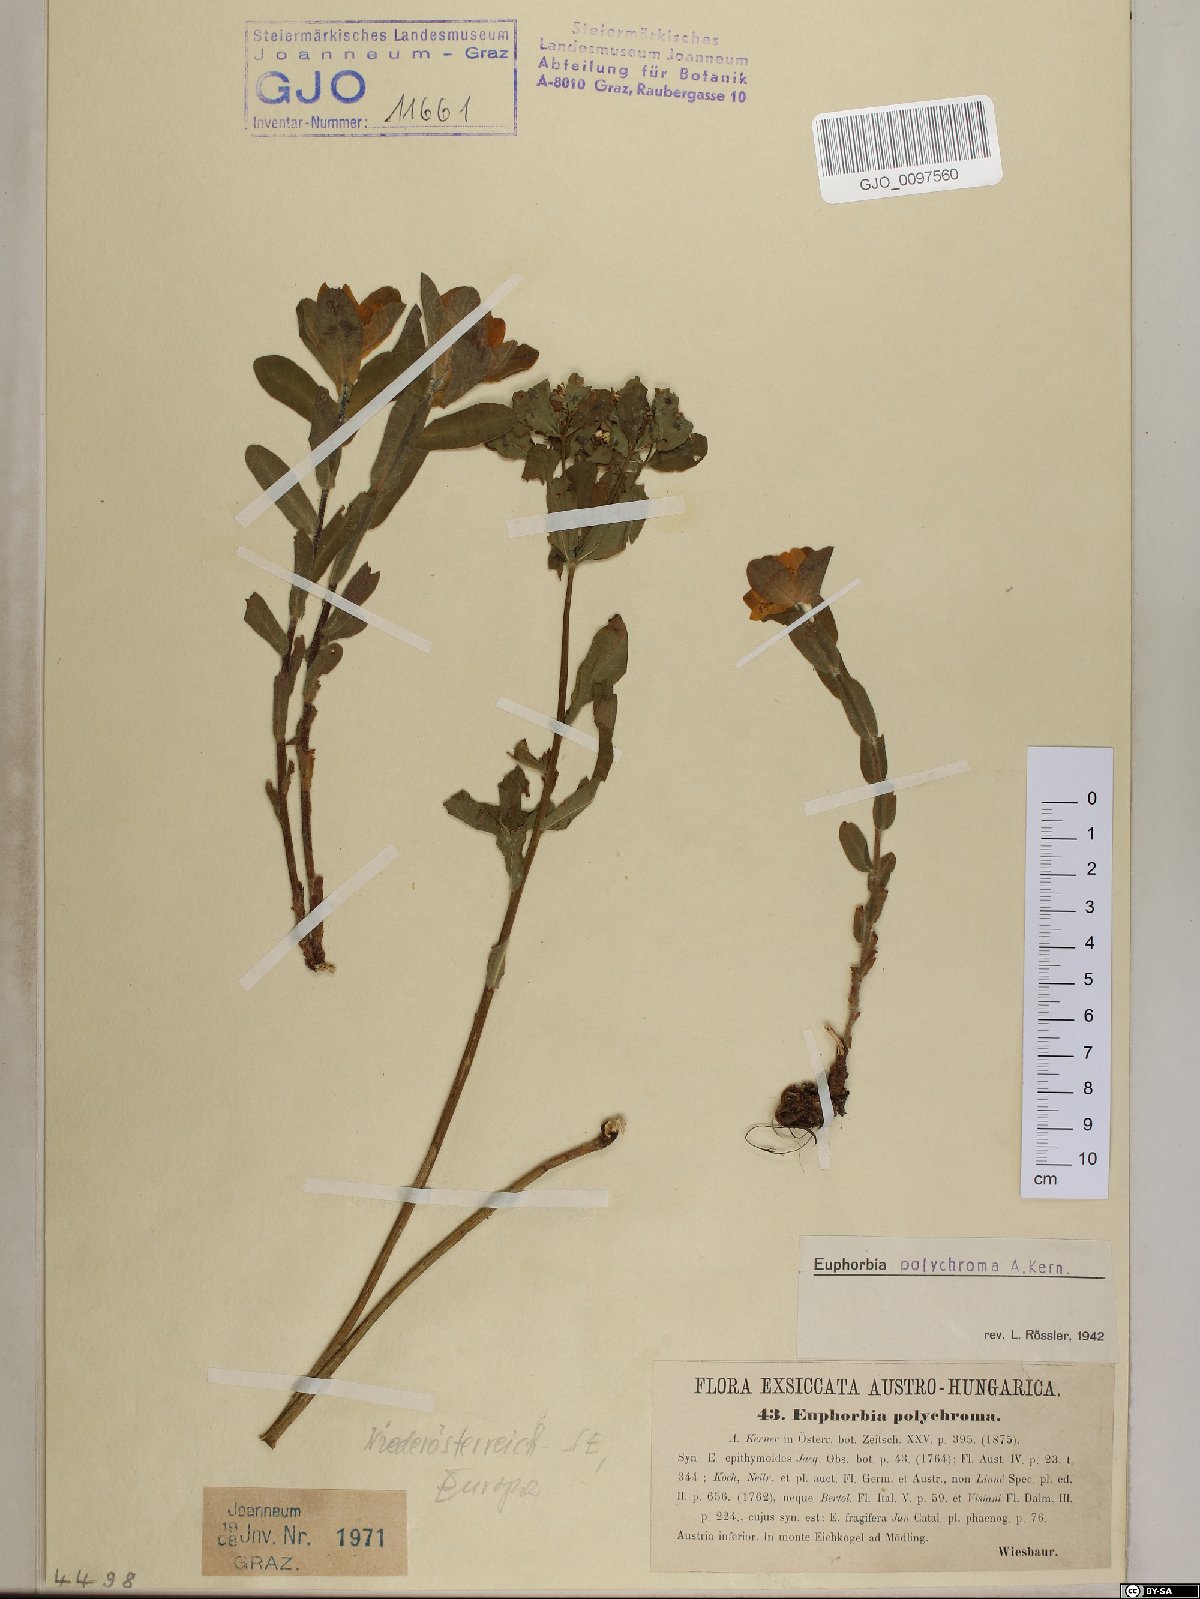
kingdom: Plantae
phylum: Tracheophyta
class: Magnoliopsida
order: Malpighiales
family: Euphorbiaceae
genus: Euphorbia
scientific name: Euphorbia epithymoides
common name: Cushion spurge
